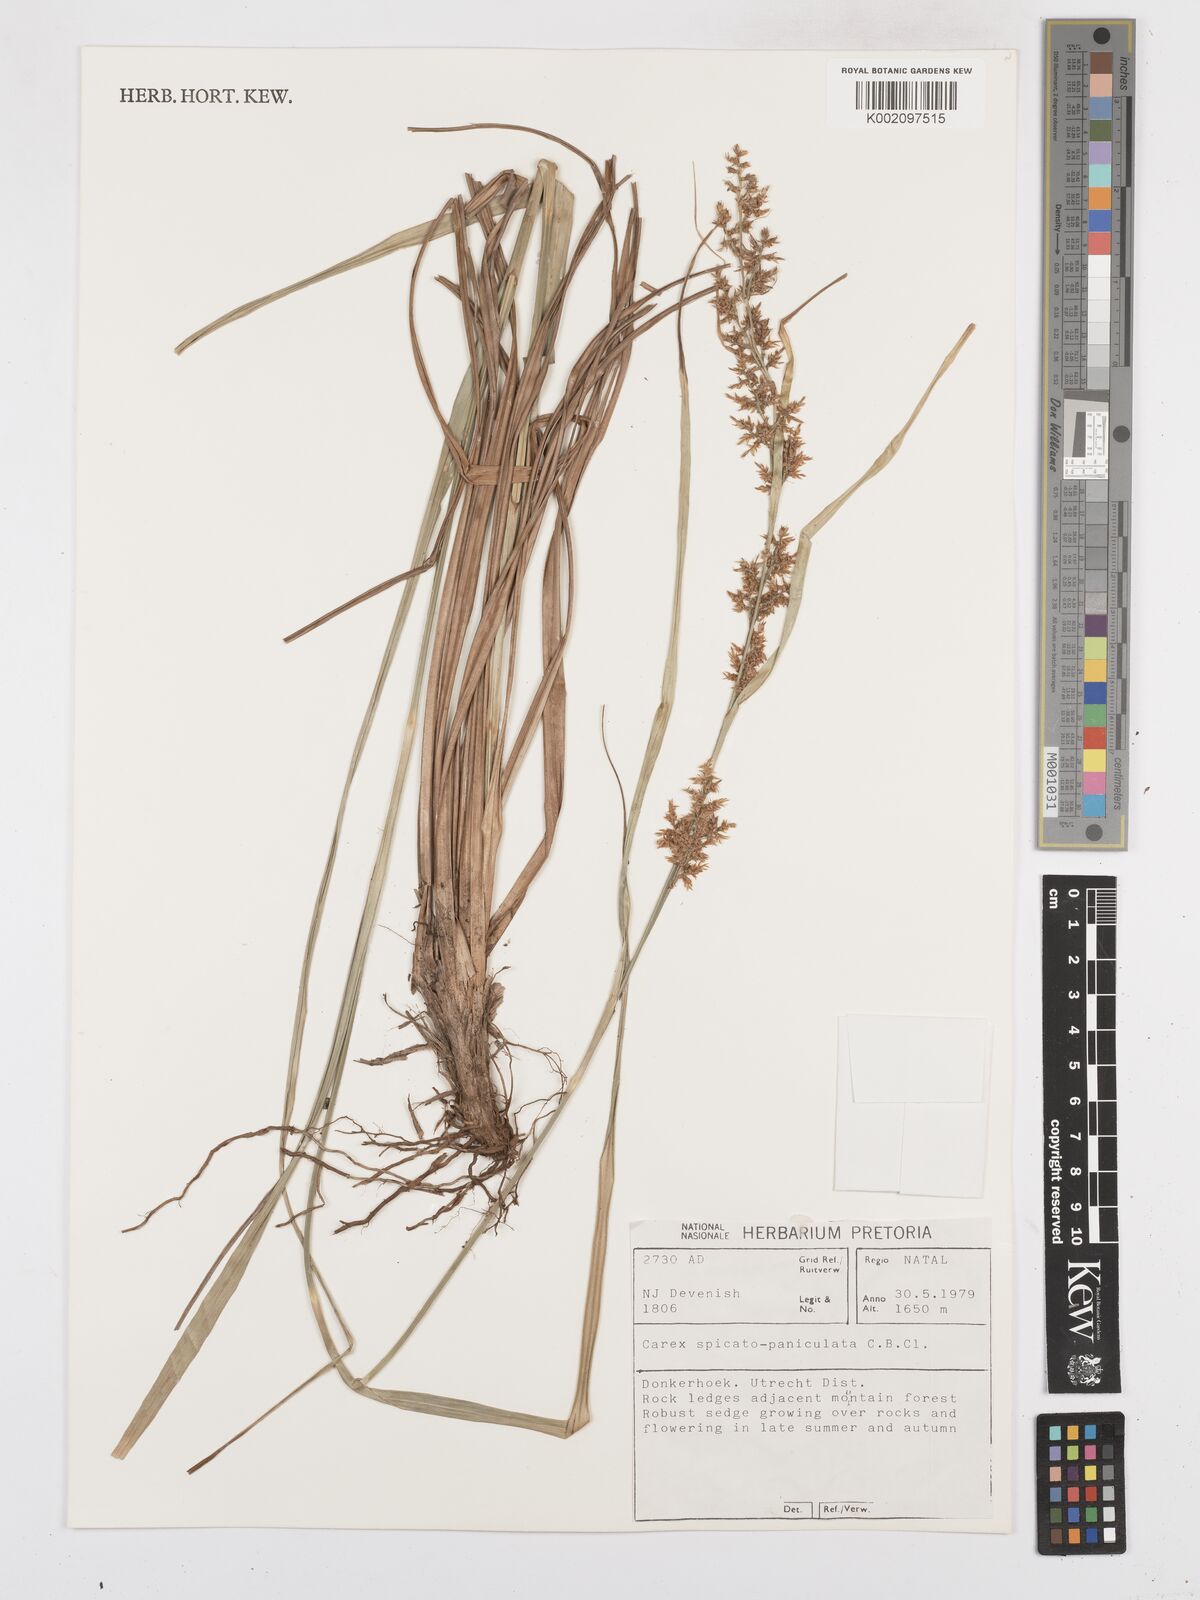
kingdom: Plantae
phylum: Tracheophyta
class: Liliopsida
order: Poales
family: Cyperaceae
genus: Carex
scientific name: Carex spicatopaniculata
